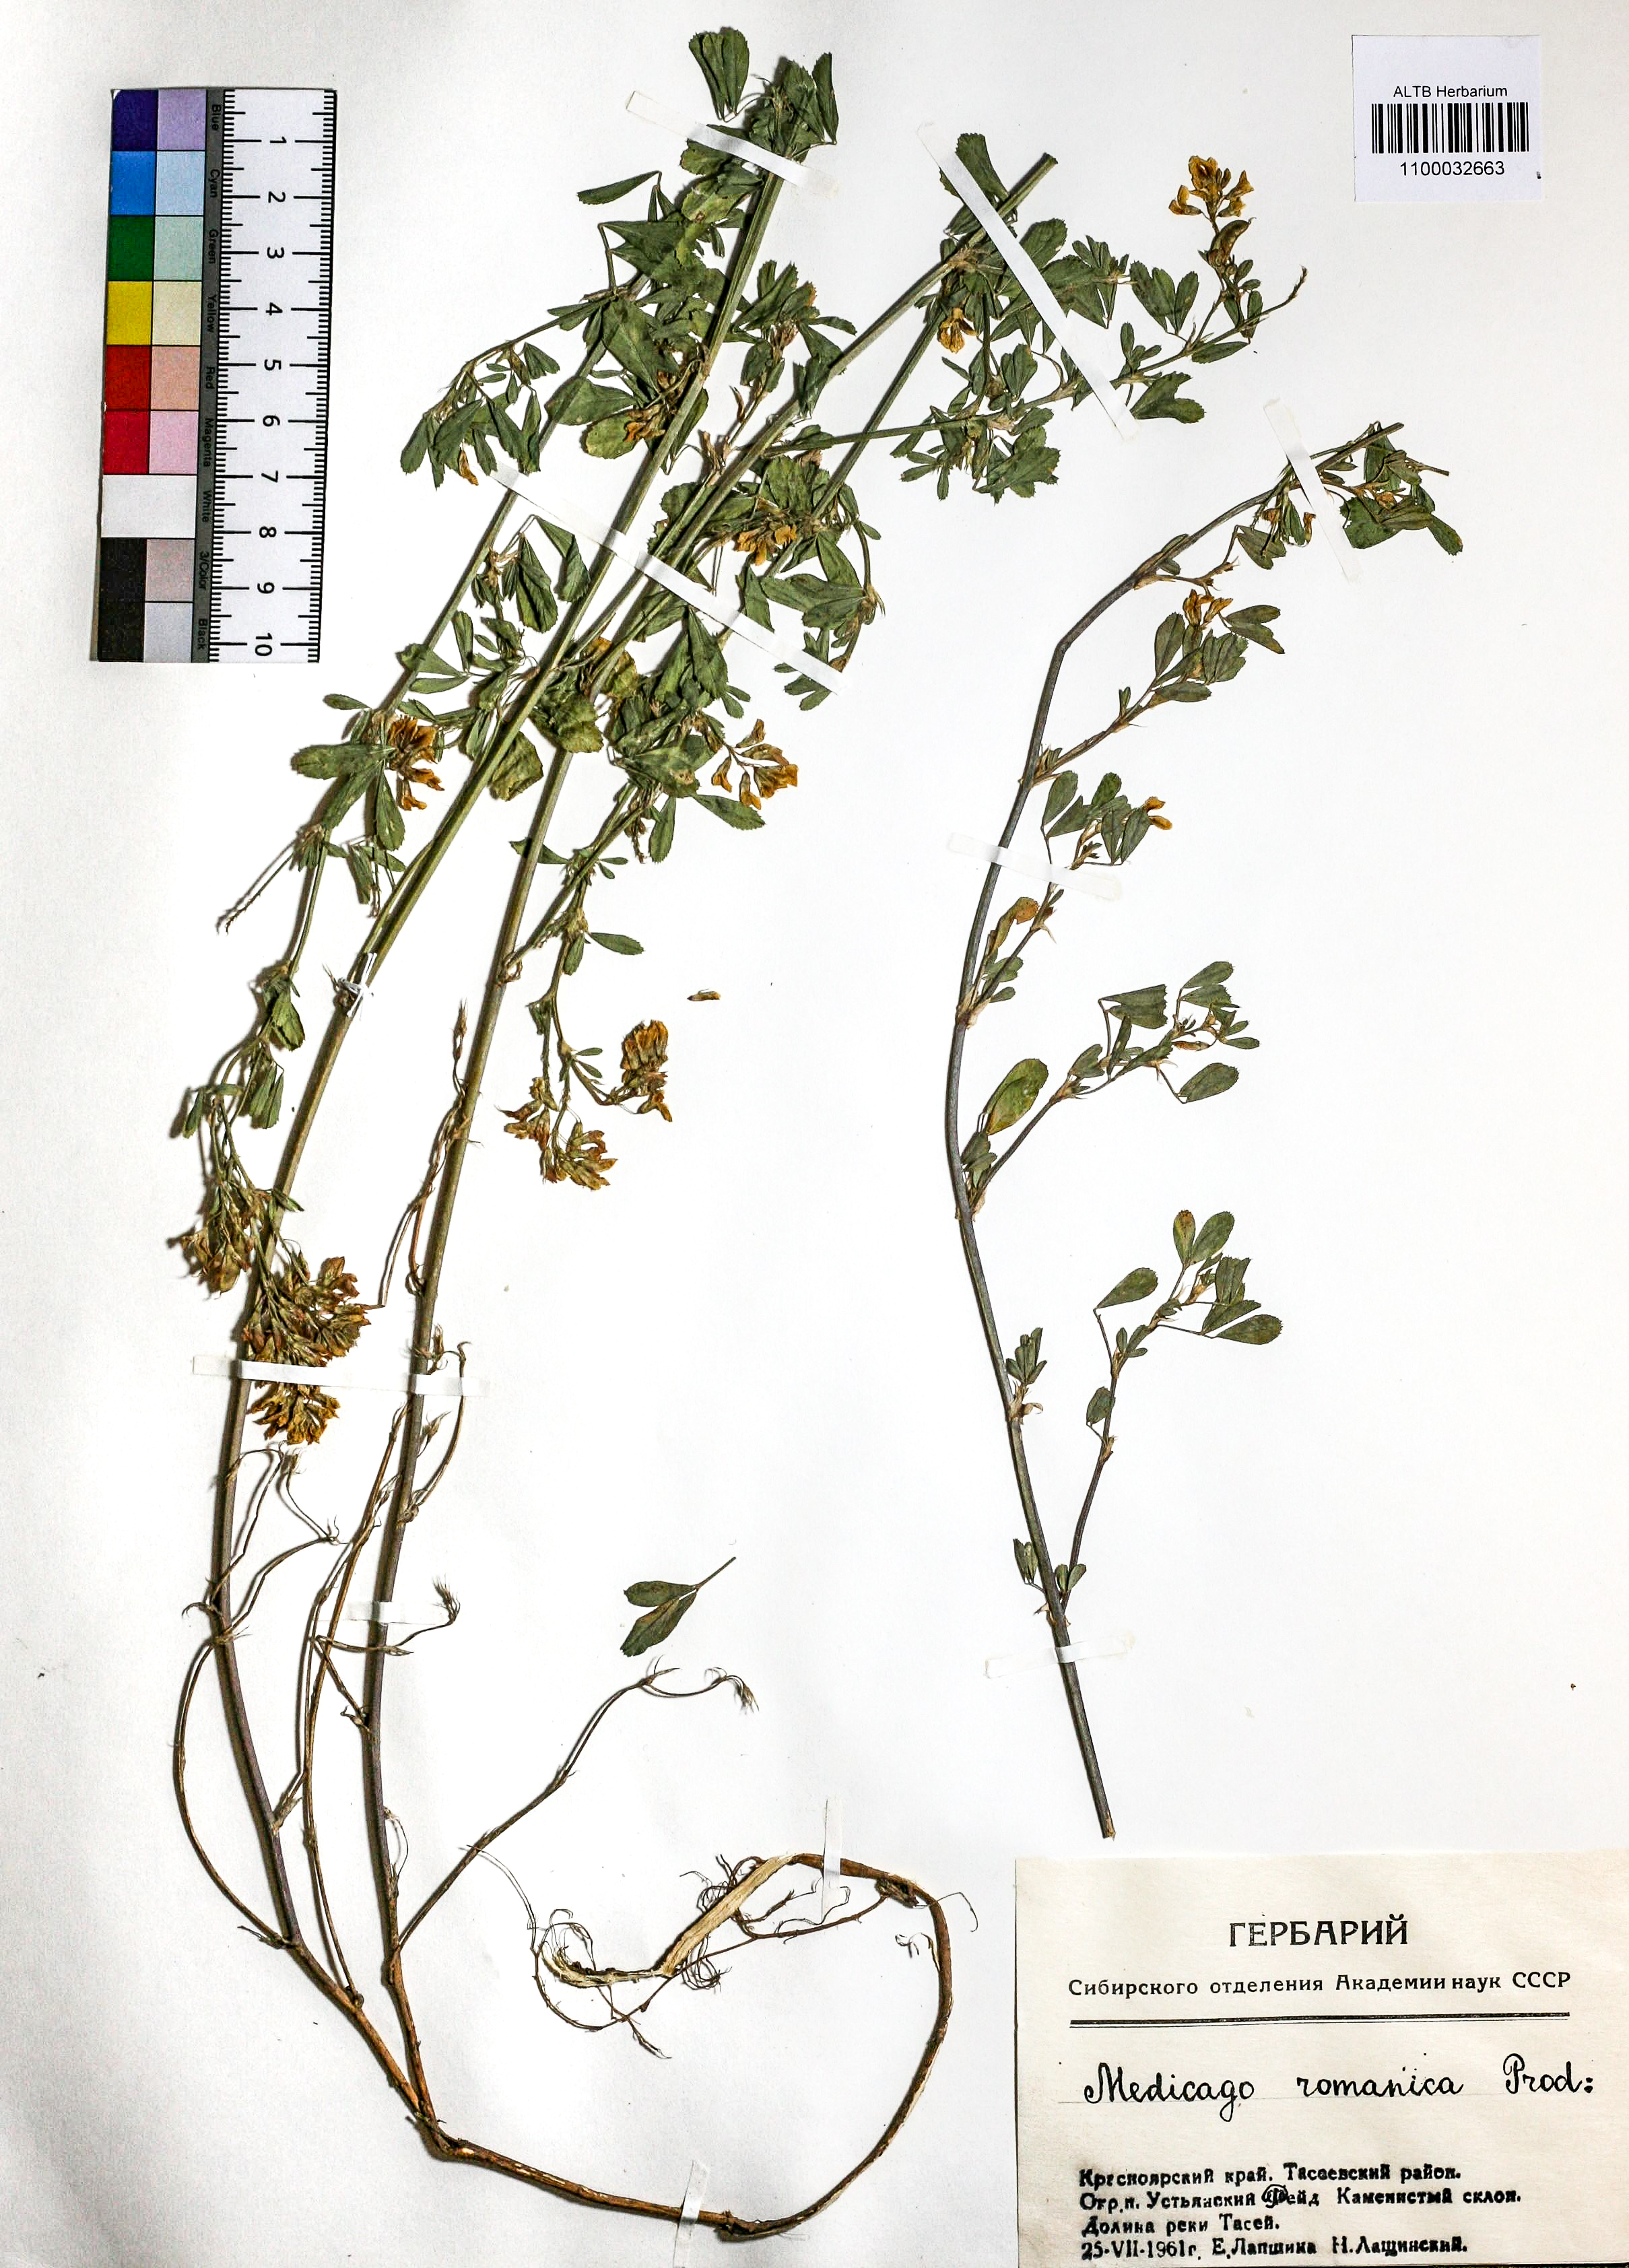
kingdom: Plantae
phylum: Tracheophyta
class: Magnoliopsida
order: Fabales
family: Fabaceae
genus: Medicago
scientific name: Medicago falcata
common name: Sickle medick
